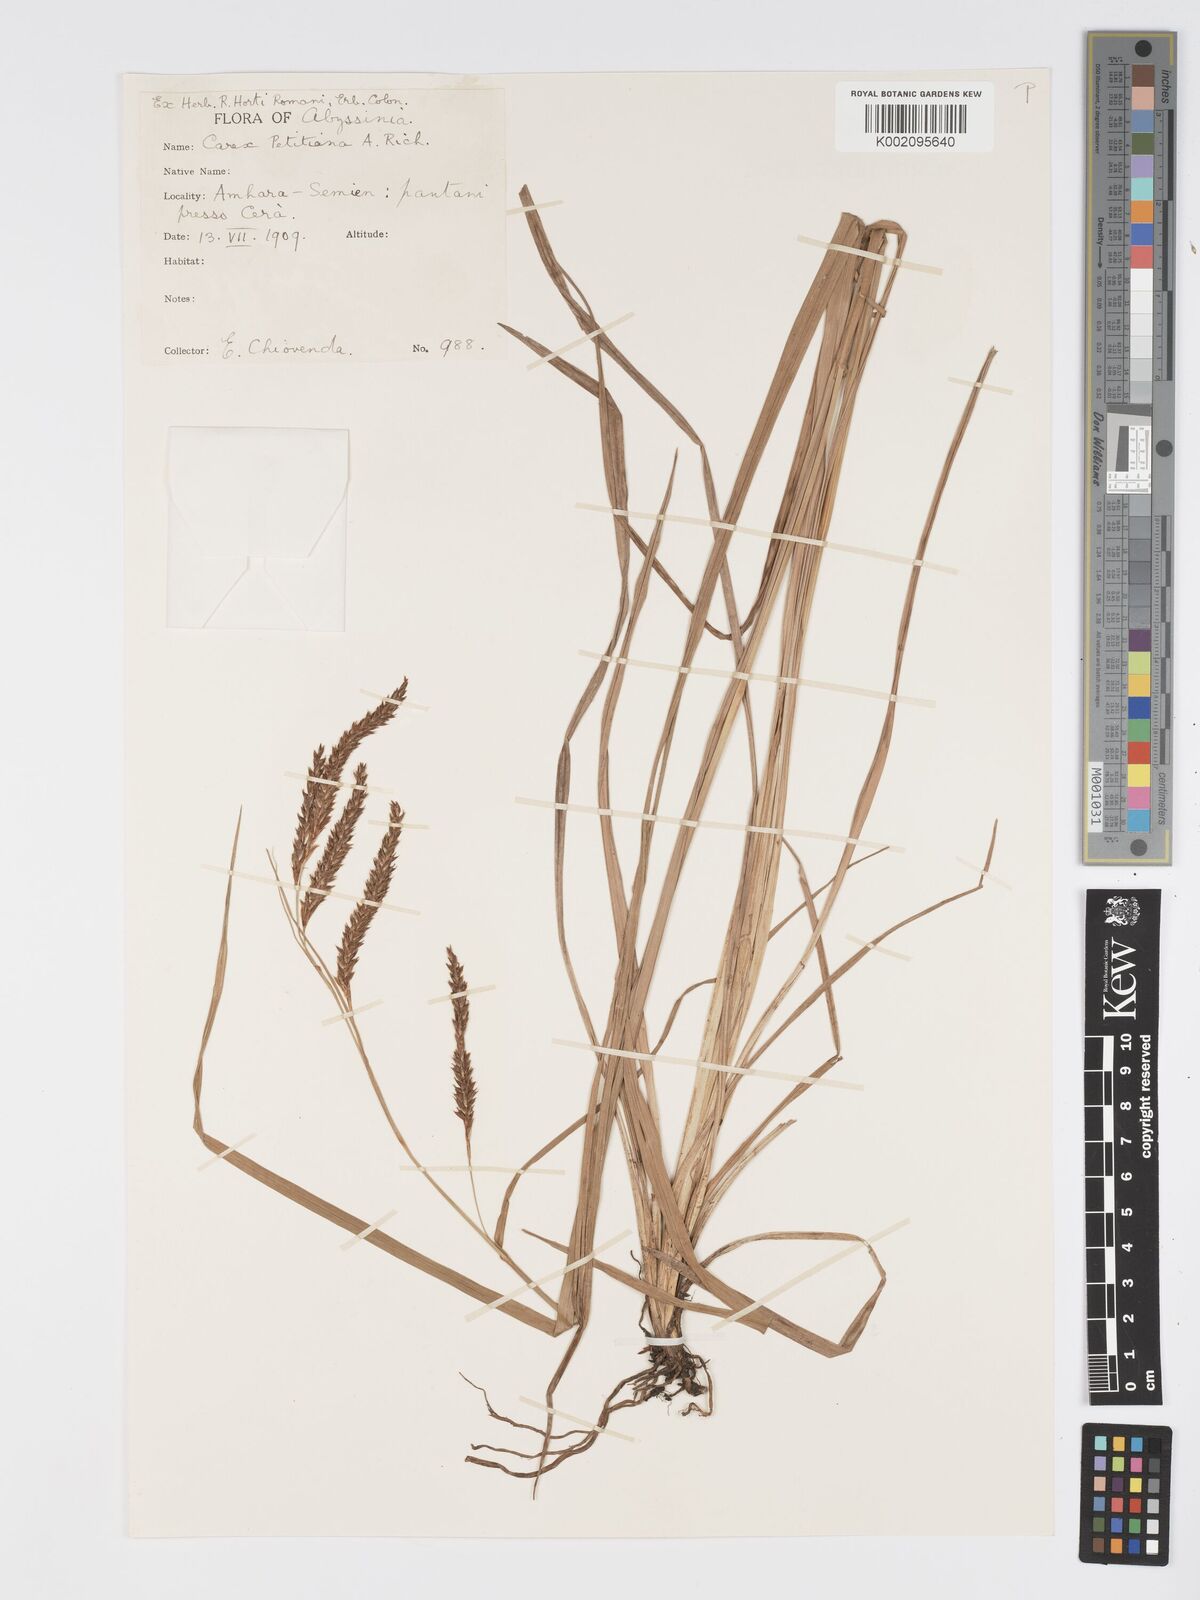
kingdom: Plantae
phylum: Tracheophyta
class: Liliopsida
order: Poales
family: Cyperaceae
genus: Carex
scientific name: Carex petitiana
